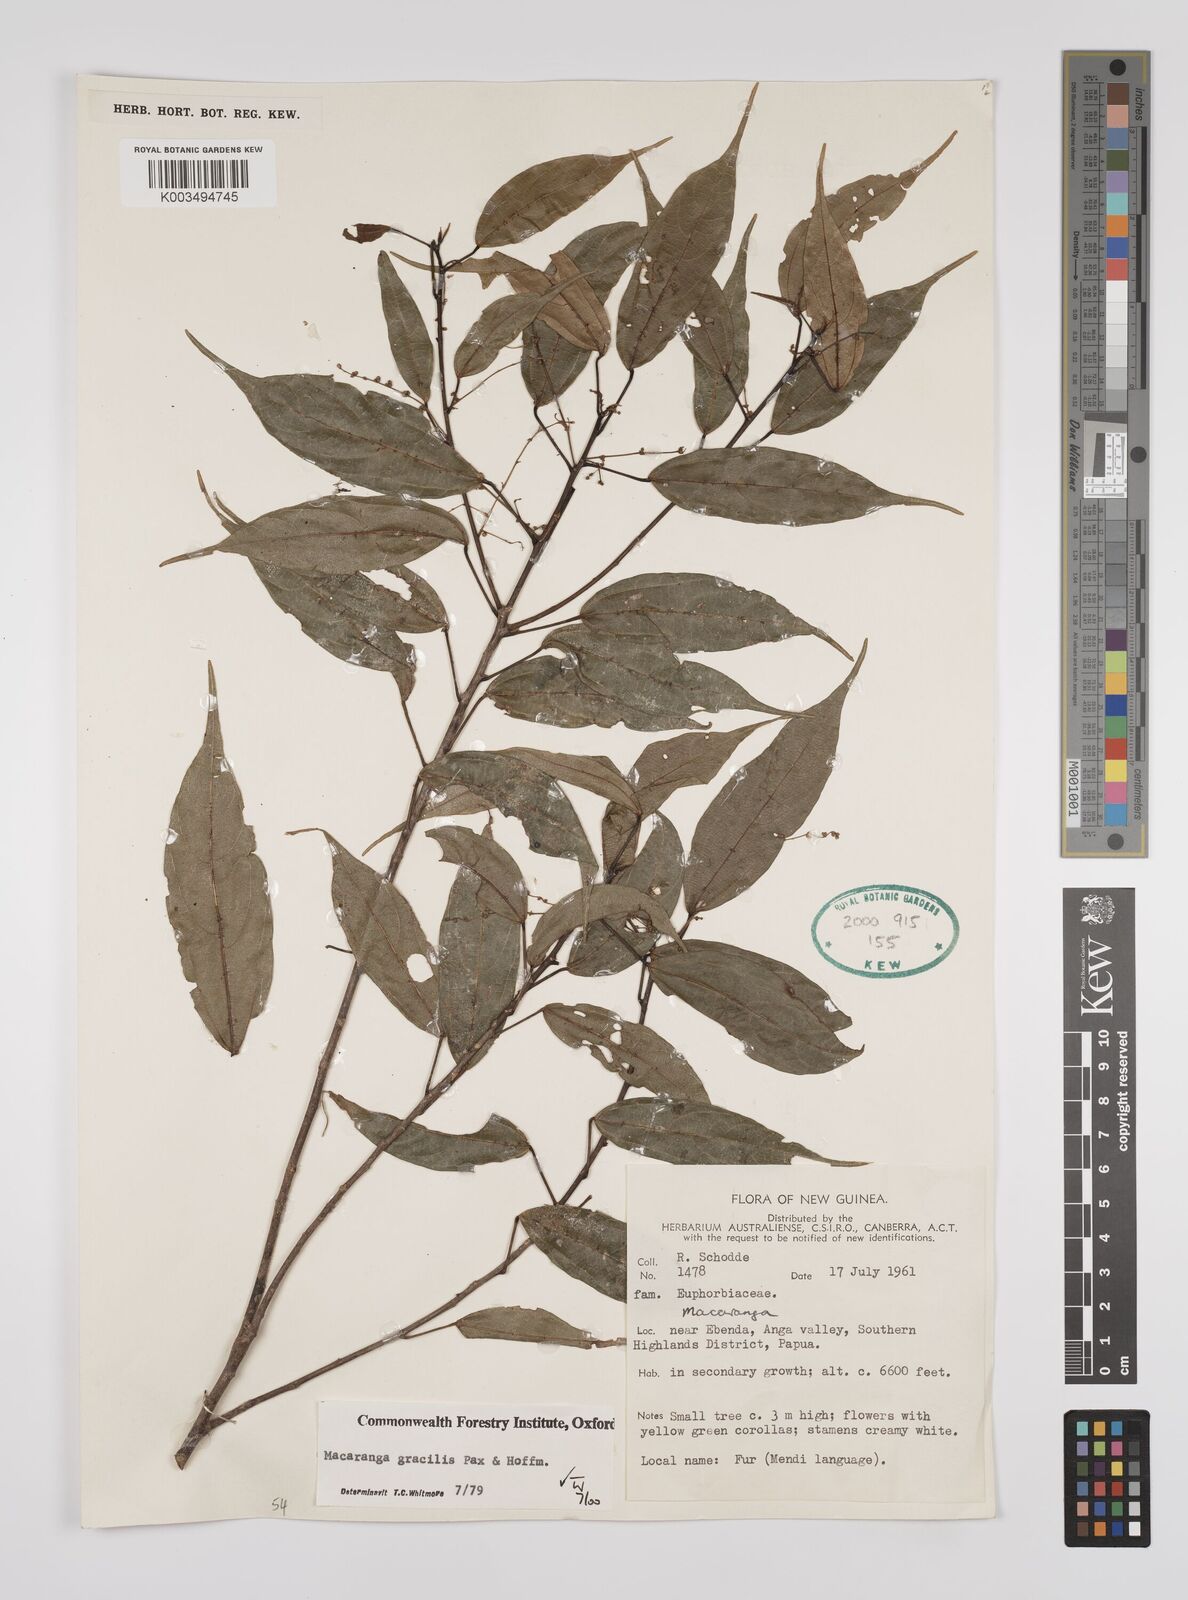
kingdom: Plantae
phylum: Tracheophyta
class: Magnoliopsida
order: Malpighiales
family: Euphorbiaceae
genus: Macaranga
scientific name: Macaranga gracilis
